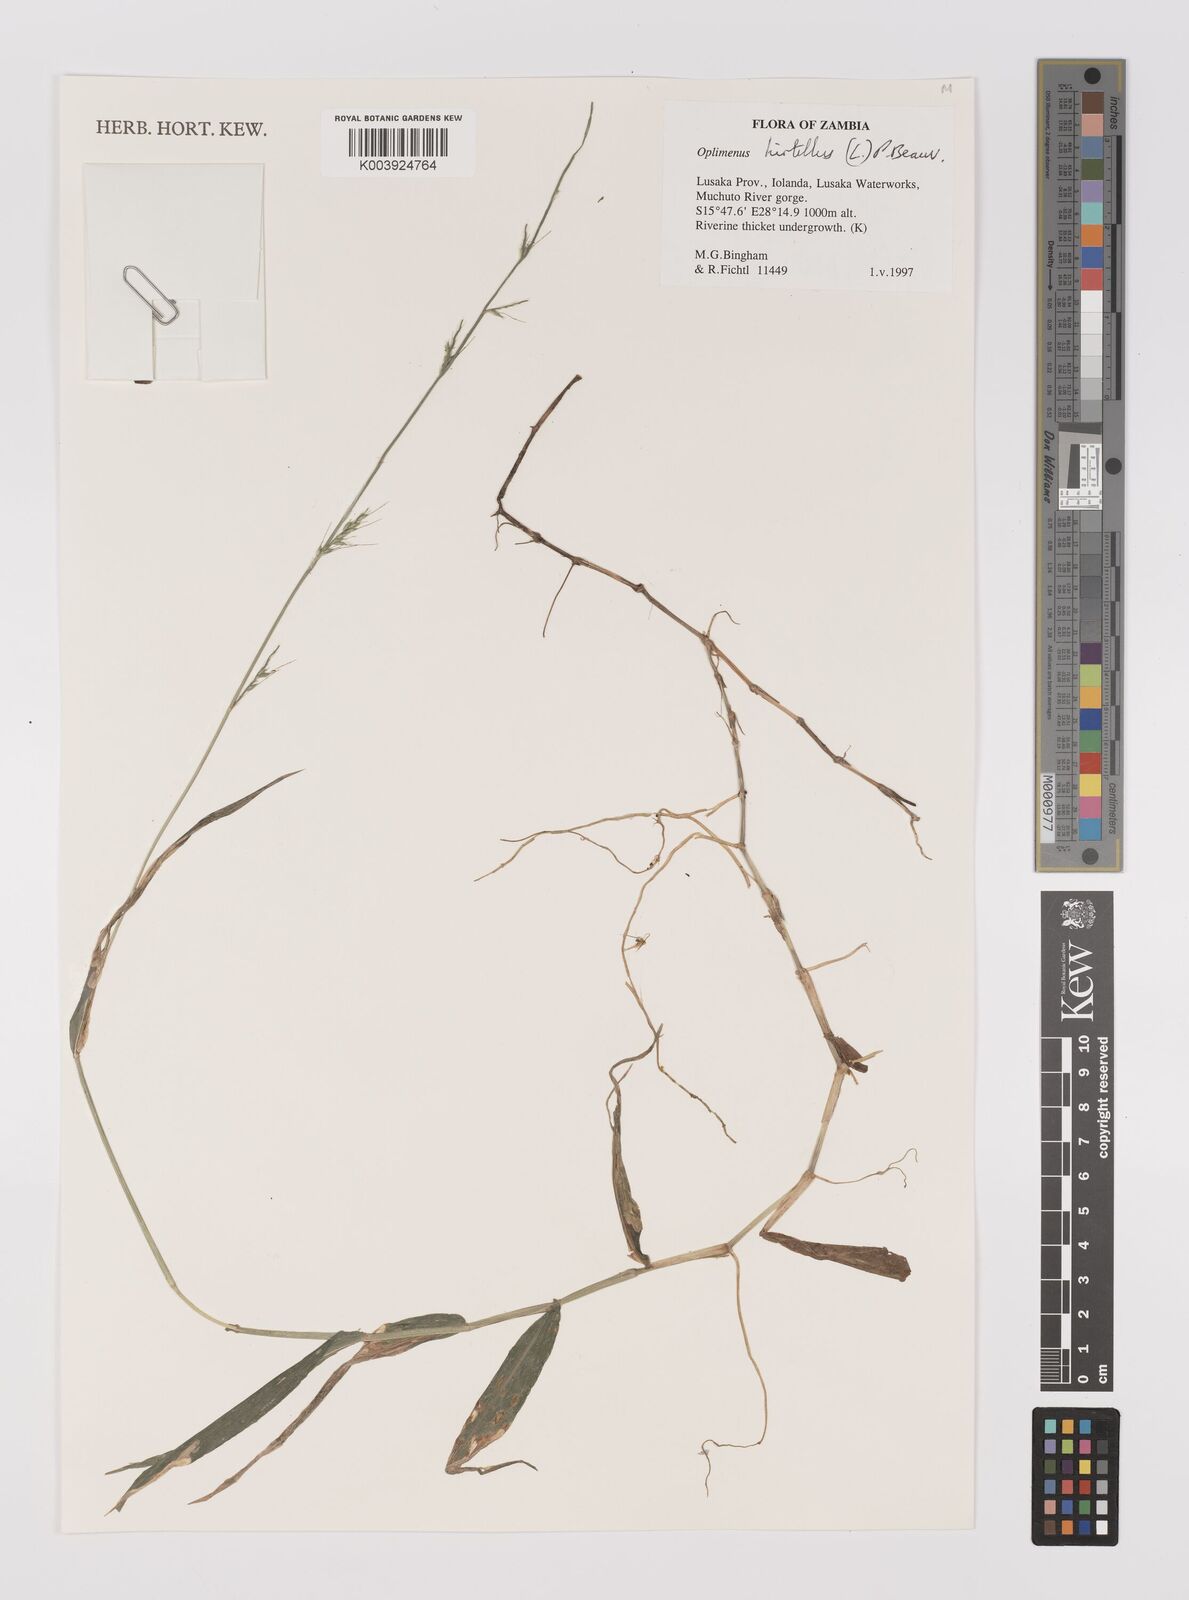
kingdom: Plantae
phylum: Tracheophyta
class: Liliopsida
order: Poales
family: Poaceae
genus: Oplismenus
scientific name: Oplismenus hirtellus
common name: Basketgrass
